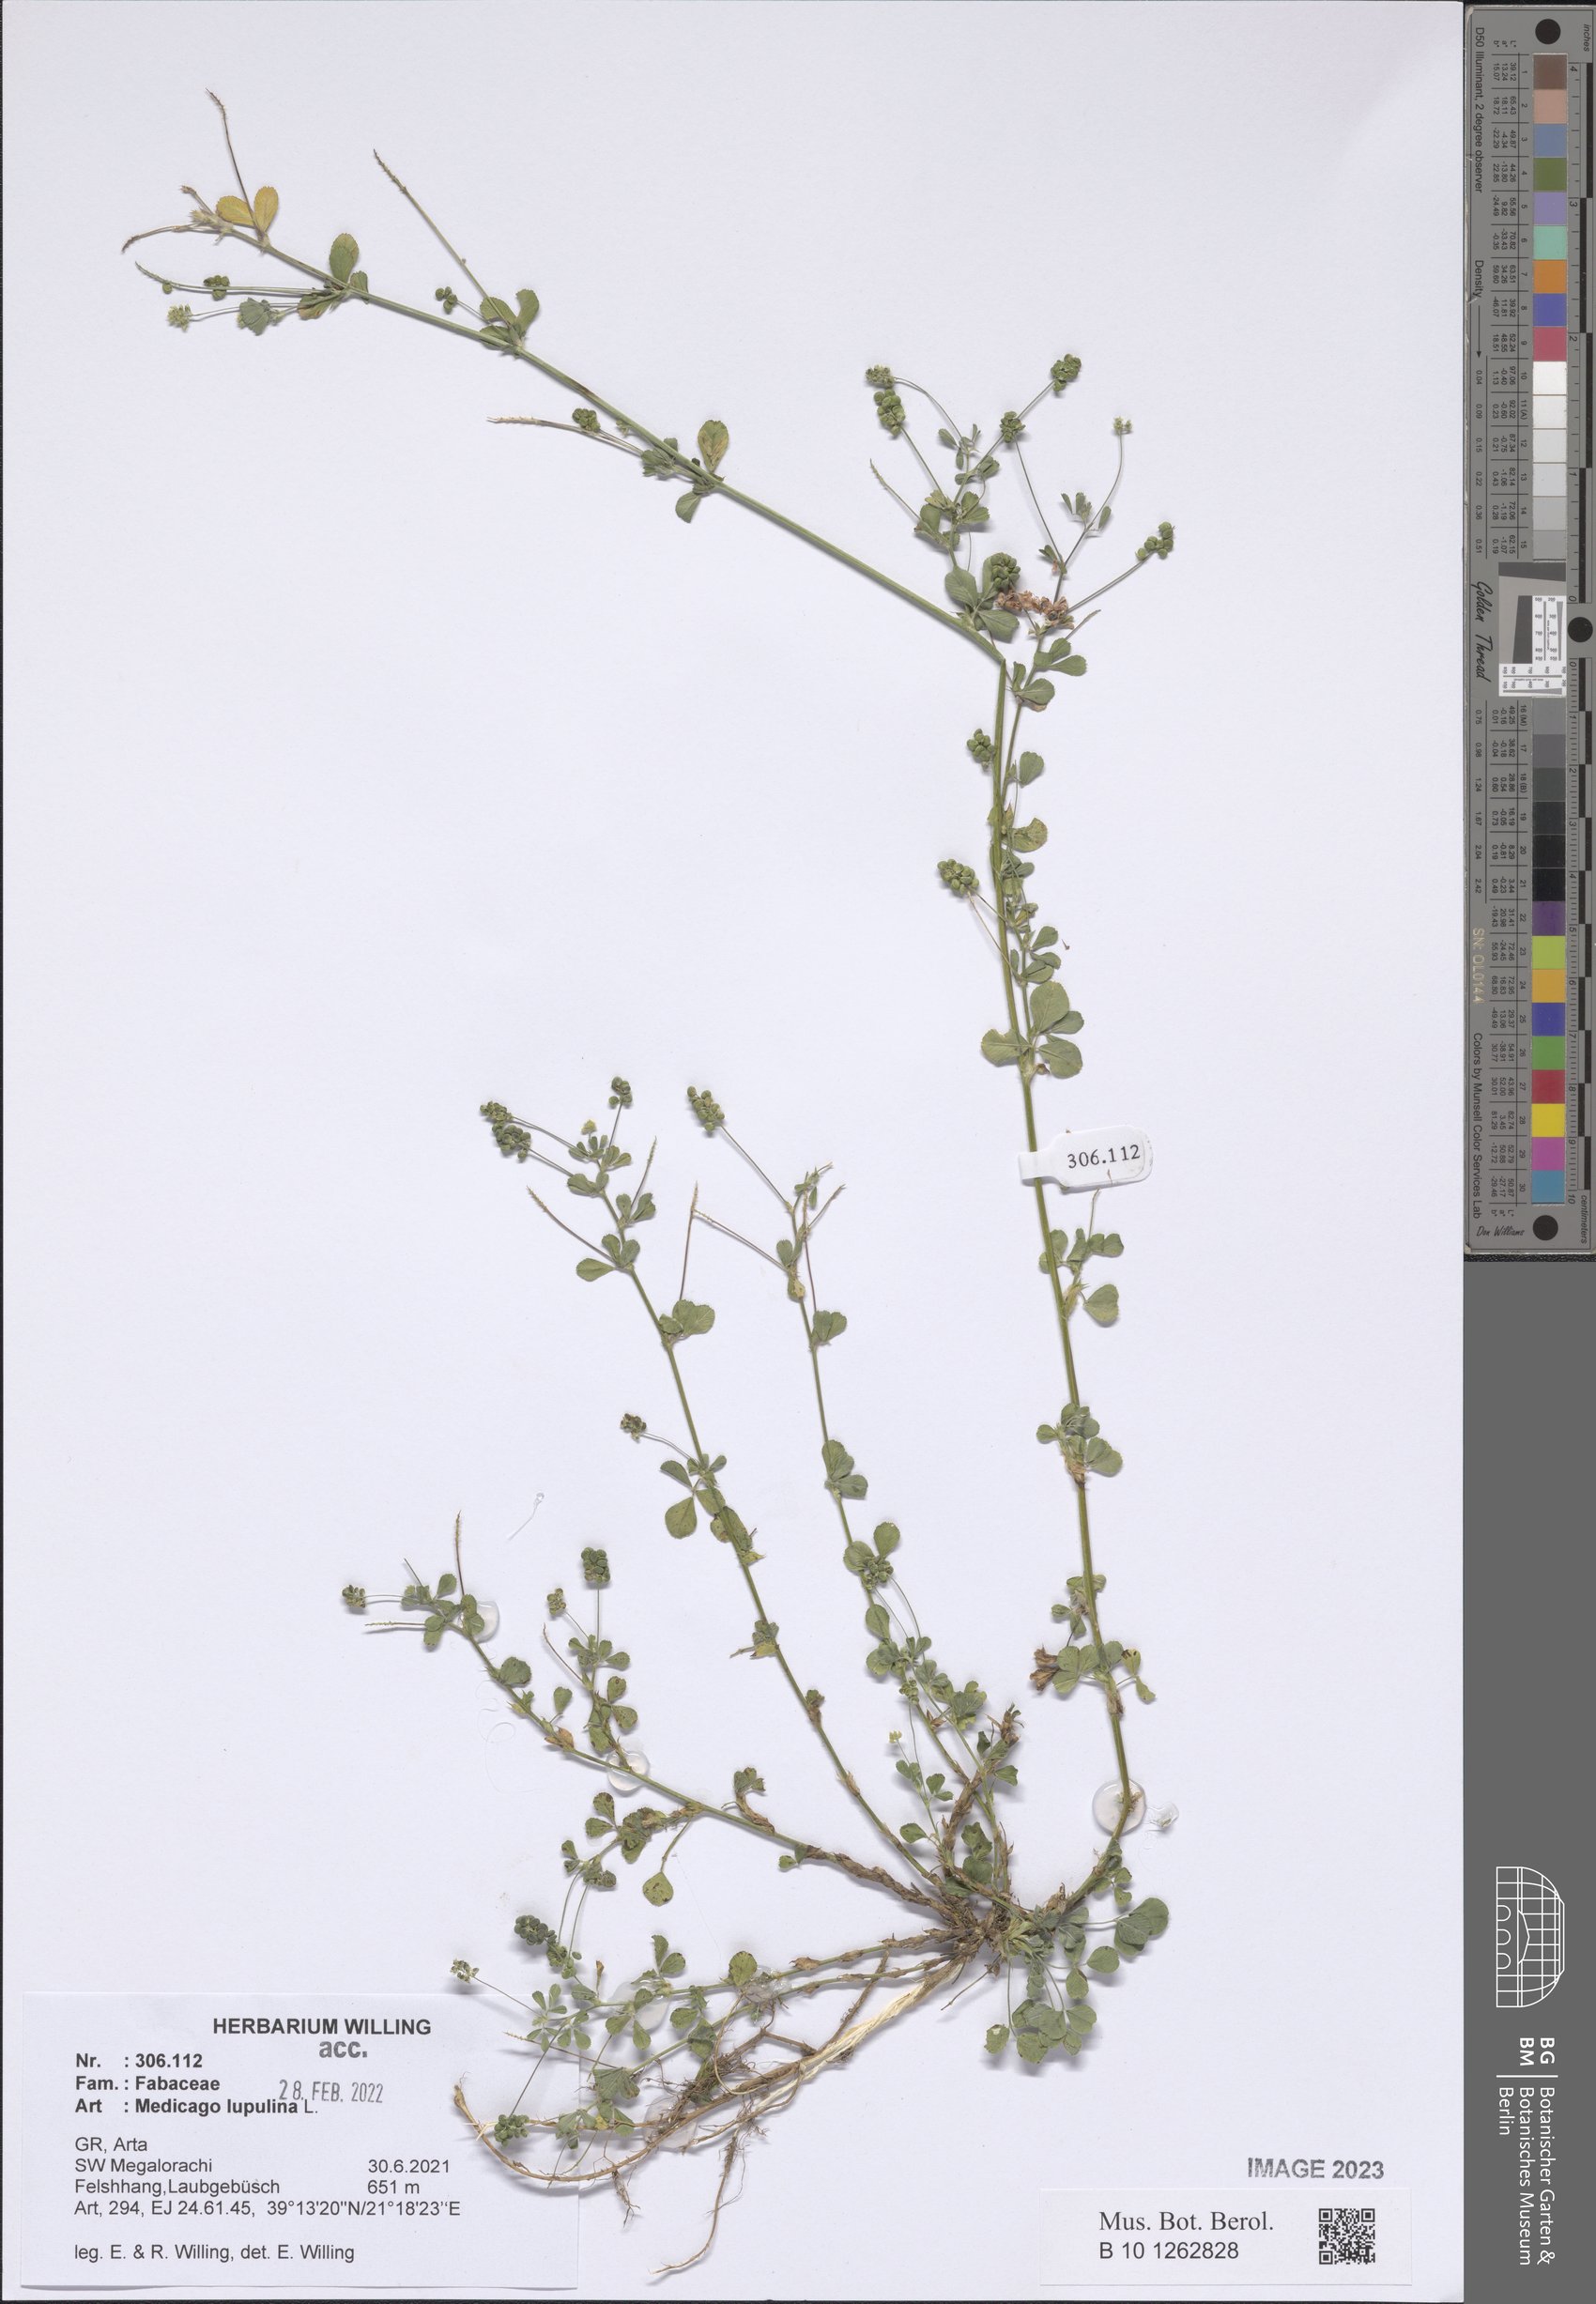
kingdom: Plantae
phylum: Tracheophyta
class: Magnoliopsida
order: Fabales
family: Fabaceae
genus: Medicago
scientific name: Medicago lupulina
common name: Black medick
